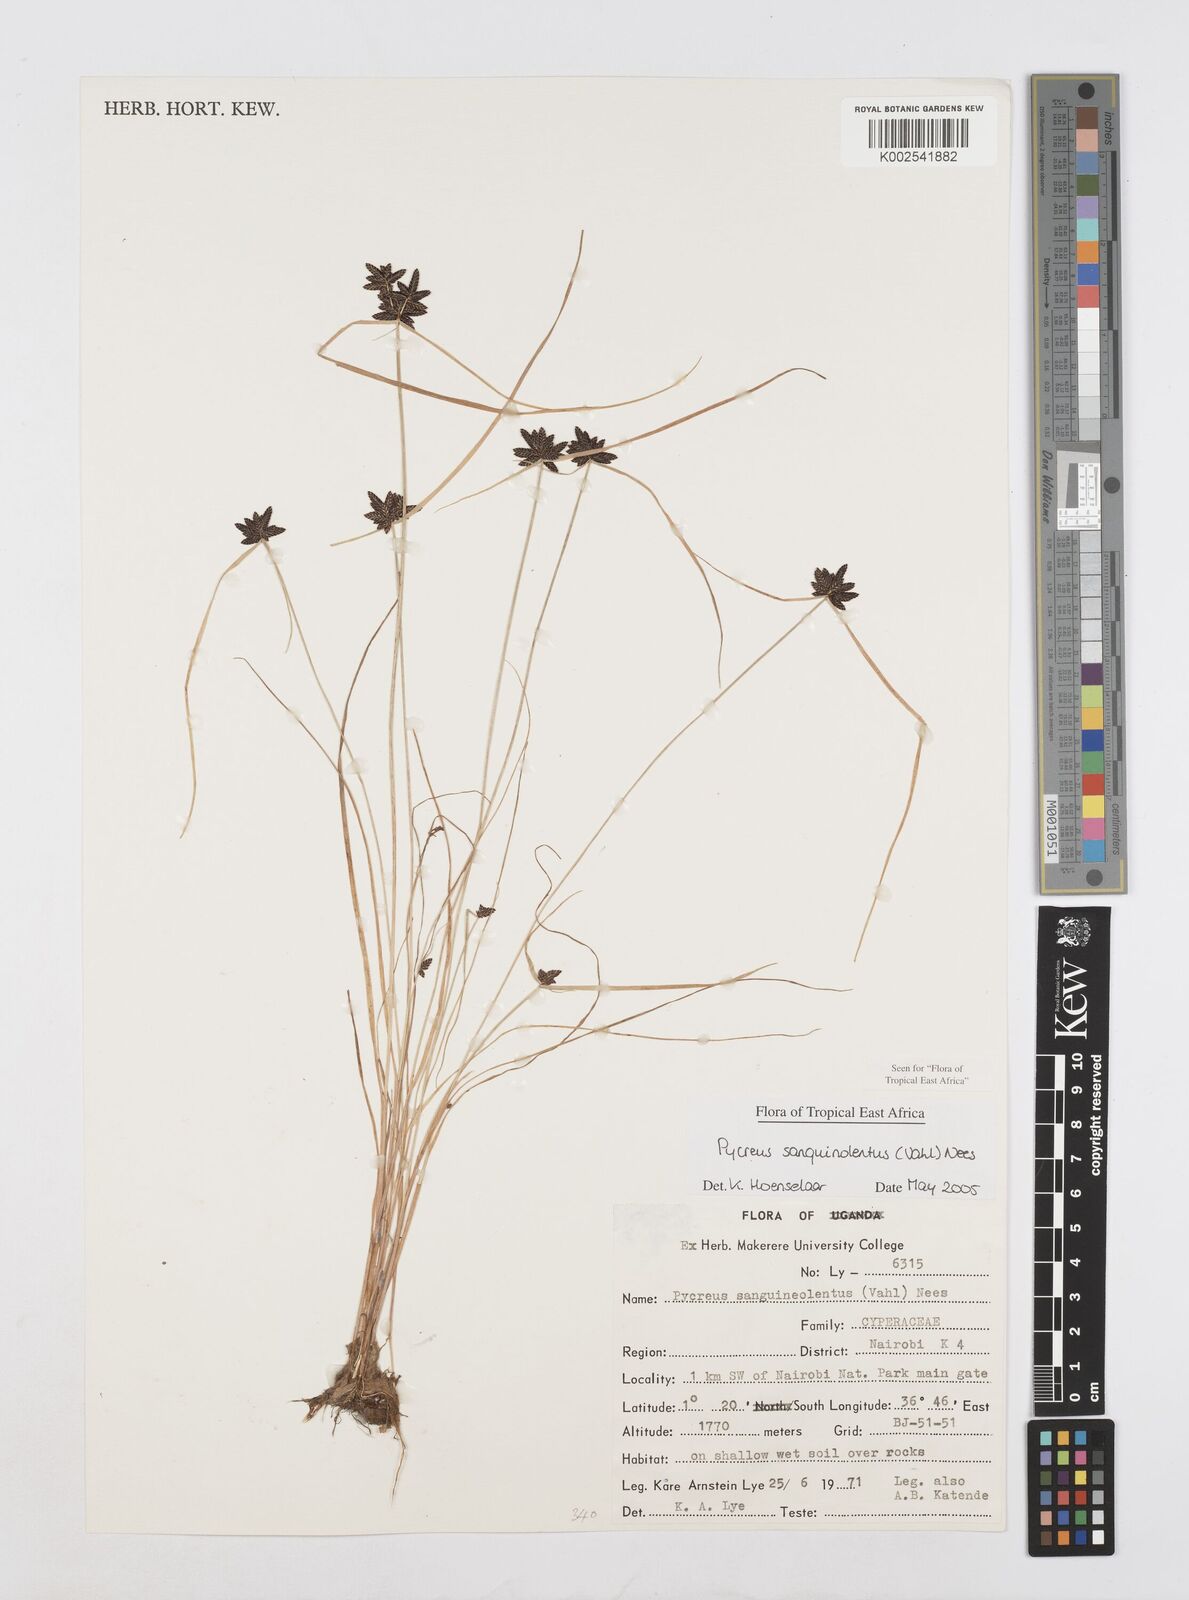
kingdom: Plantae
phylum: Tracheophyta
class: Liliopsida
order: Poales
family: Cyperaceae
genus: Cyperus
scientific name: Cyperus sanguinolentus
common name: Purpleglume flatsedge
